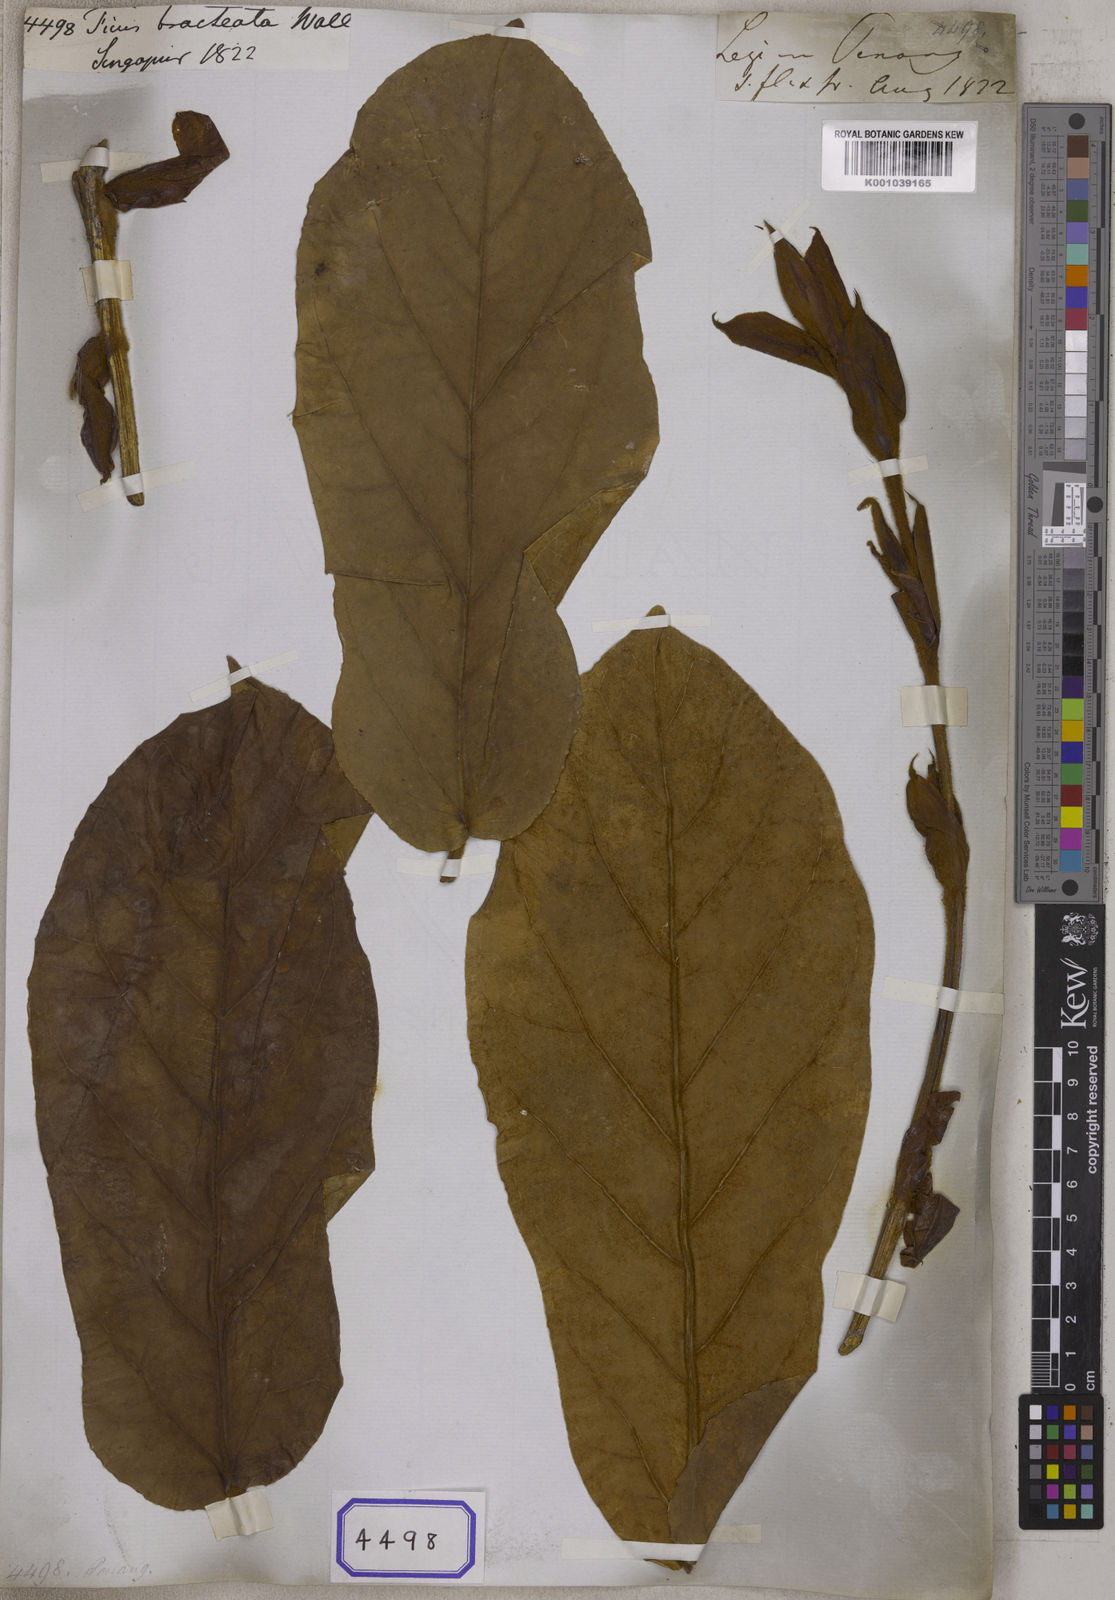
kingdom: Plantae
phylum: Tracheophyta
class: Magnoliopsida
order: Rosales
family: Moraceae
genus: Ficus
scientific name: Ficus
